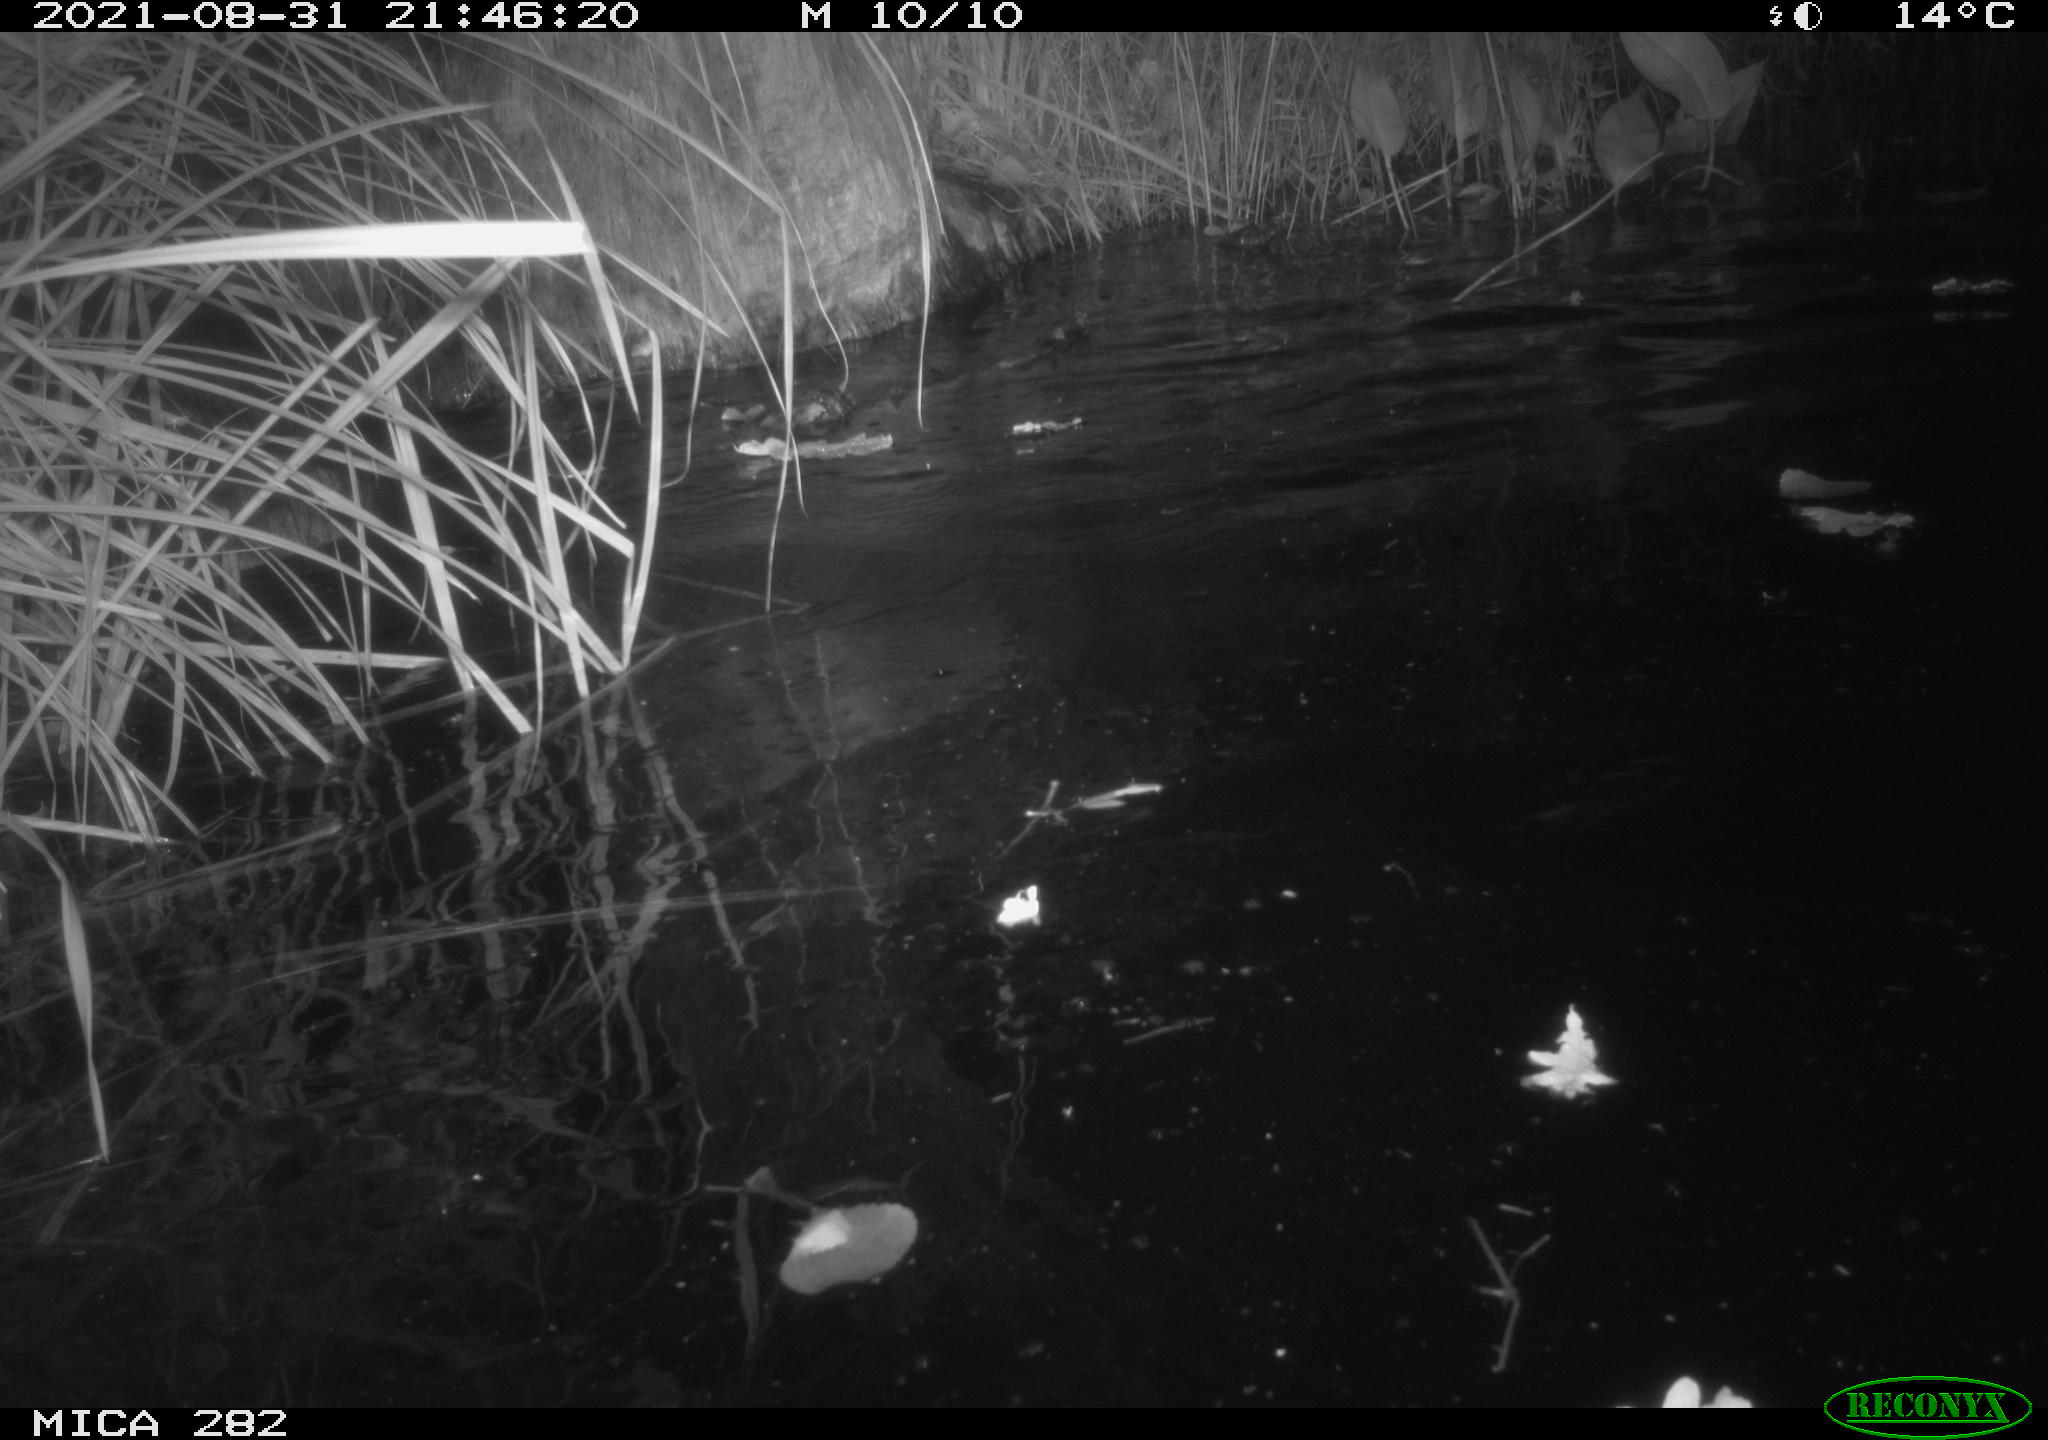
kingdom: Animalia
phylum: Chordata
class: Mammalia
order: Rodentia
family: Castoridae
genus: Castor
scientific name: Castor fiber
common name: Eurasian beaver
